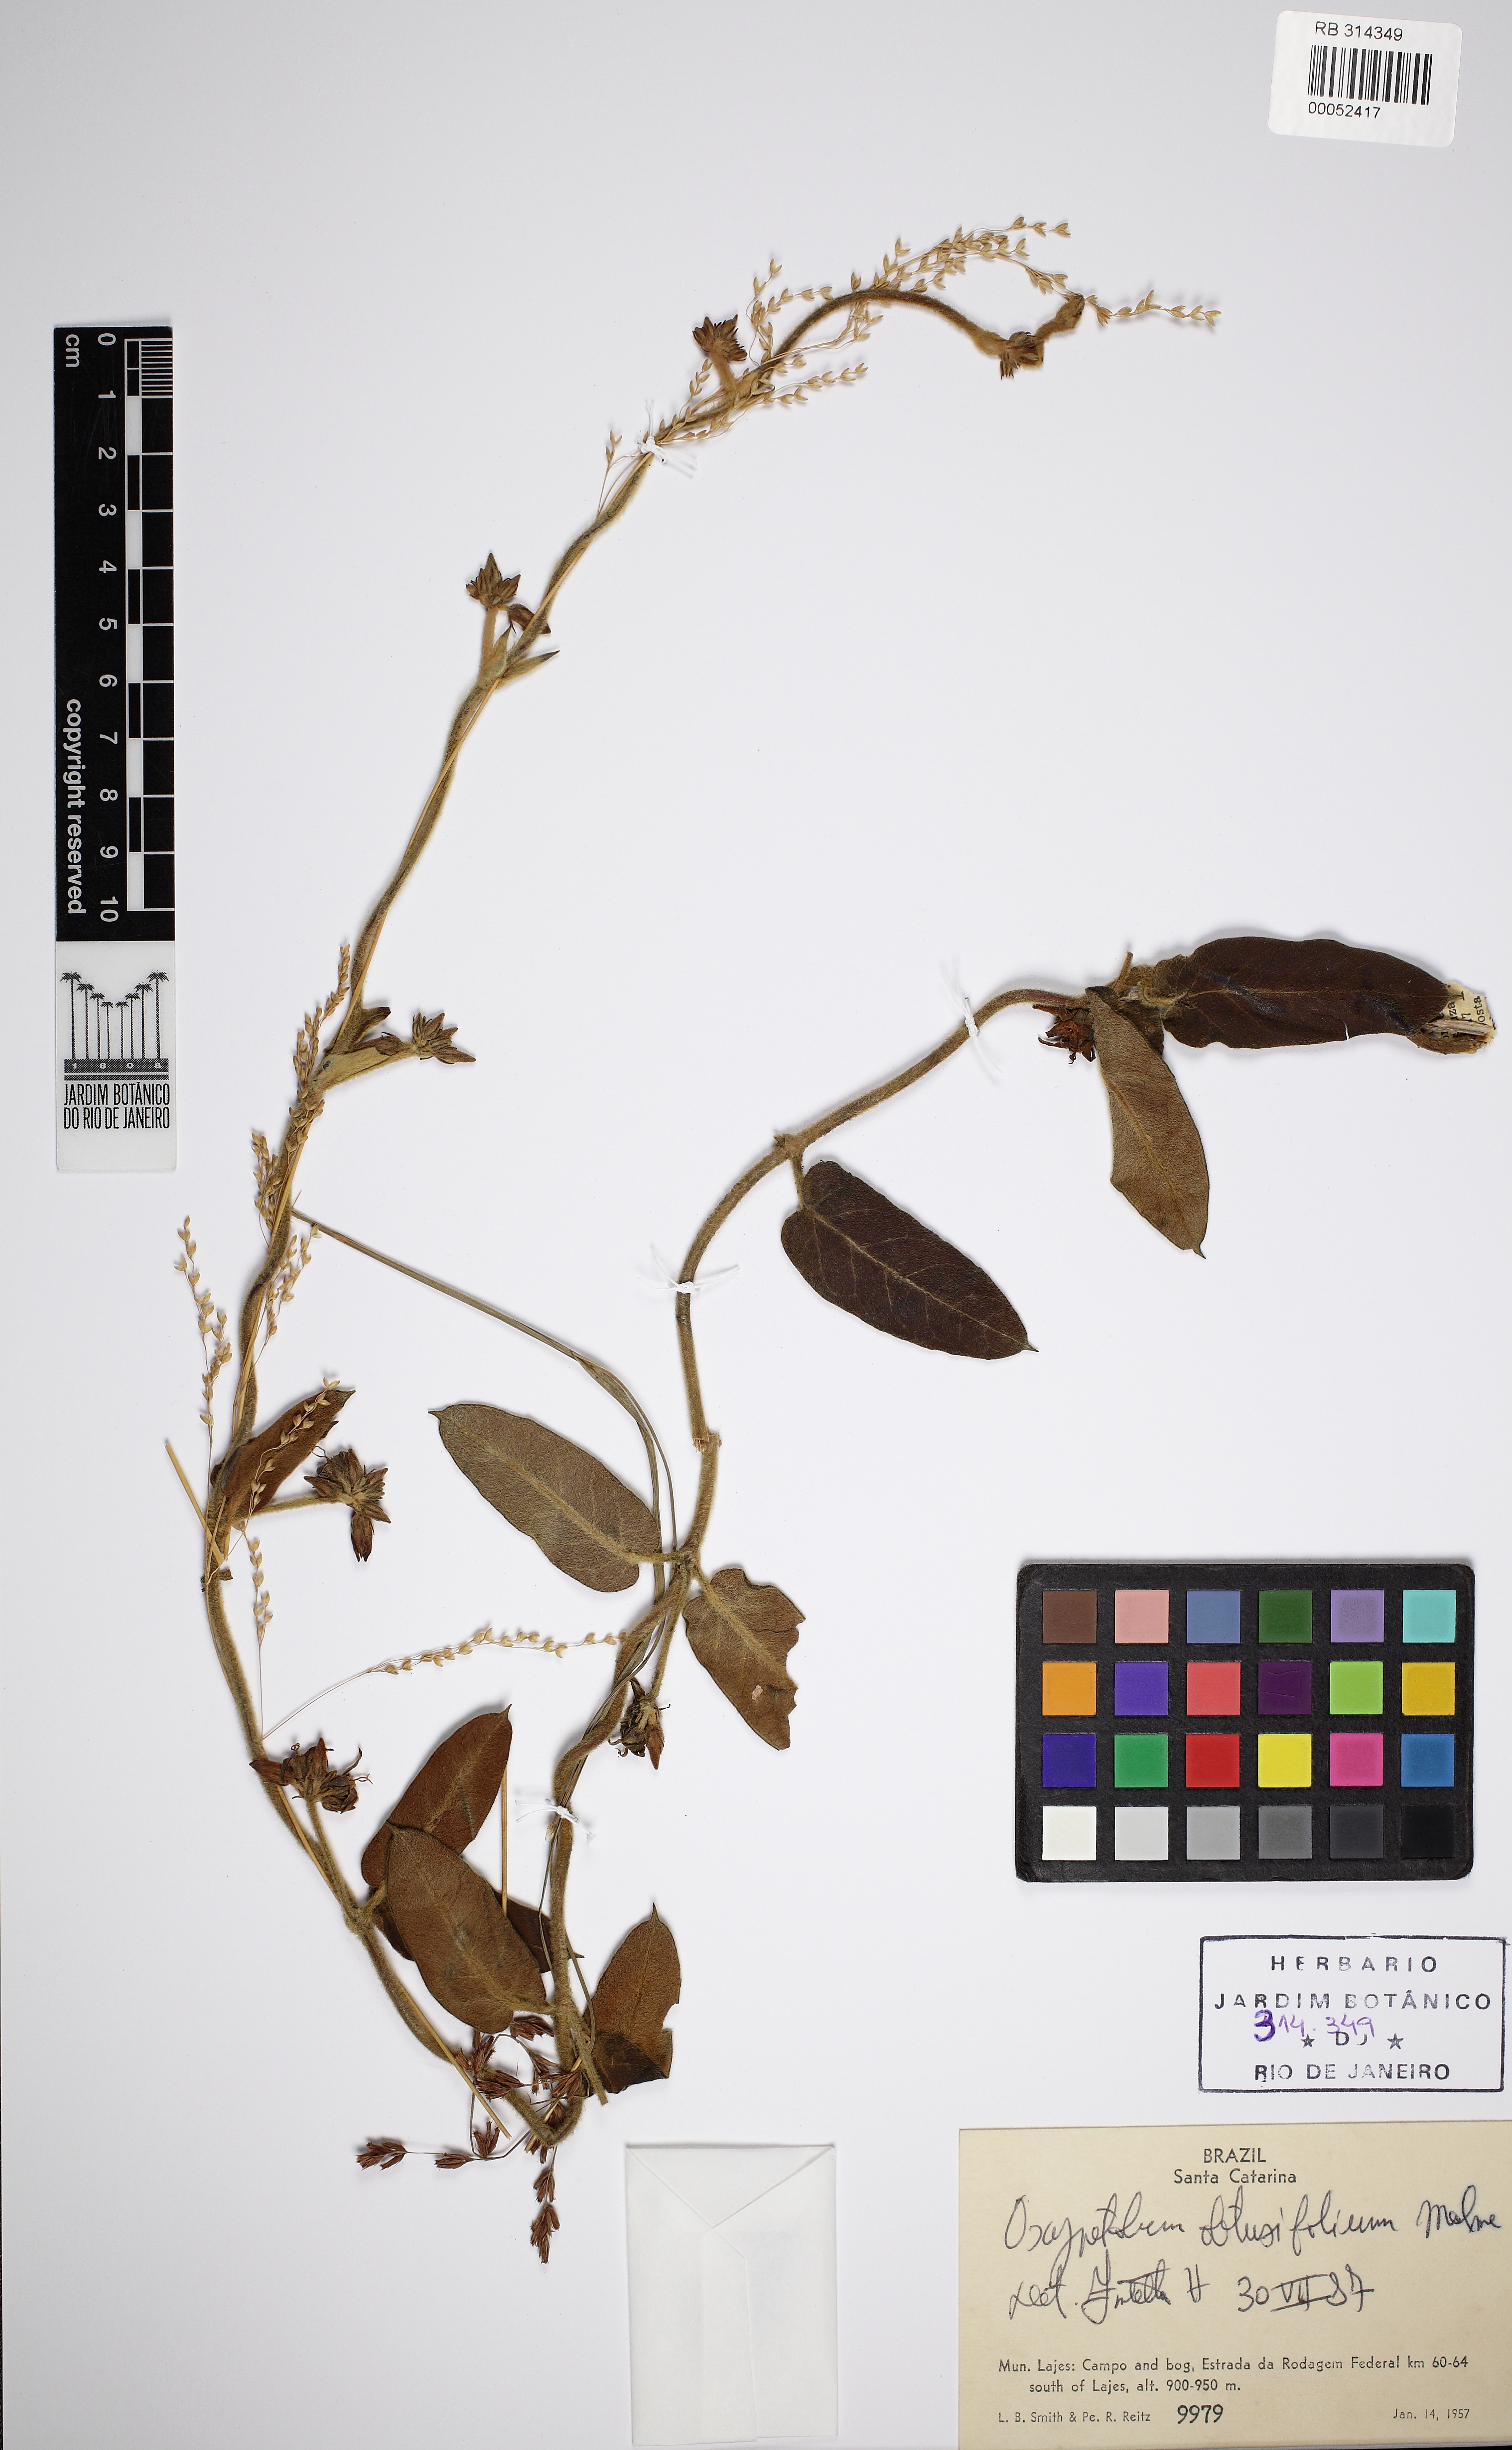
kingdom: Plantae
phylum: Tracheophyta
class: Magnoliopsida
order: Gentianales
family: Apocynaceae
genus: Oxypetalum
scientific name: Oxypetalum obtusifolium
